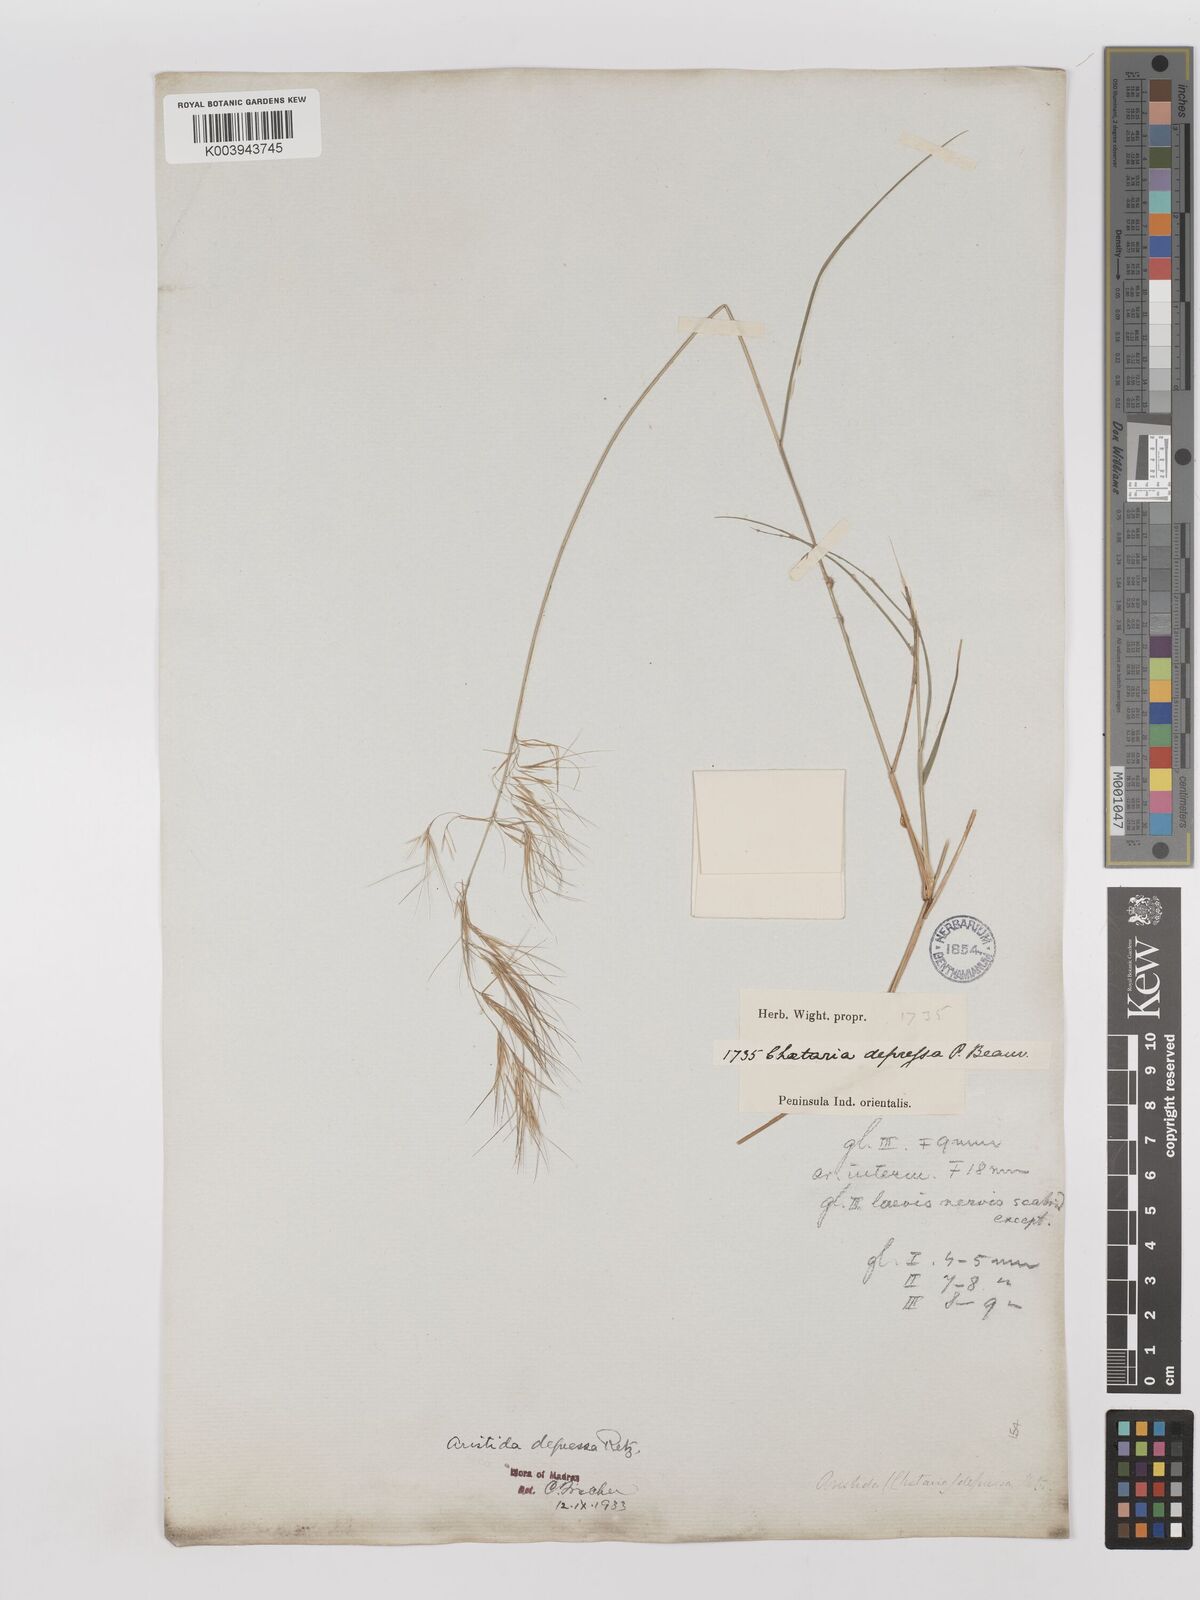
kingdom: Plantae
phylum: Tracheophyta
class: Liliopsida
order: Poales
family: Poaceae
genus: Aristida
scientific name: Aristida adscensionis
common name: Sixweeks threeawn
